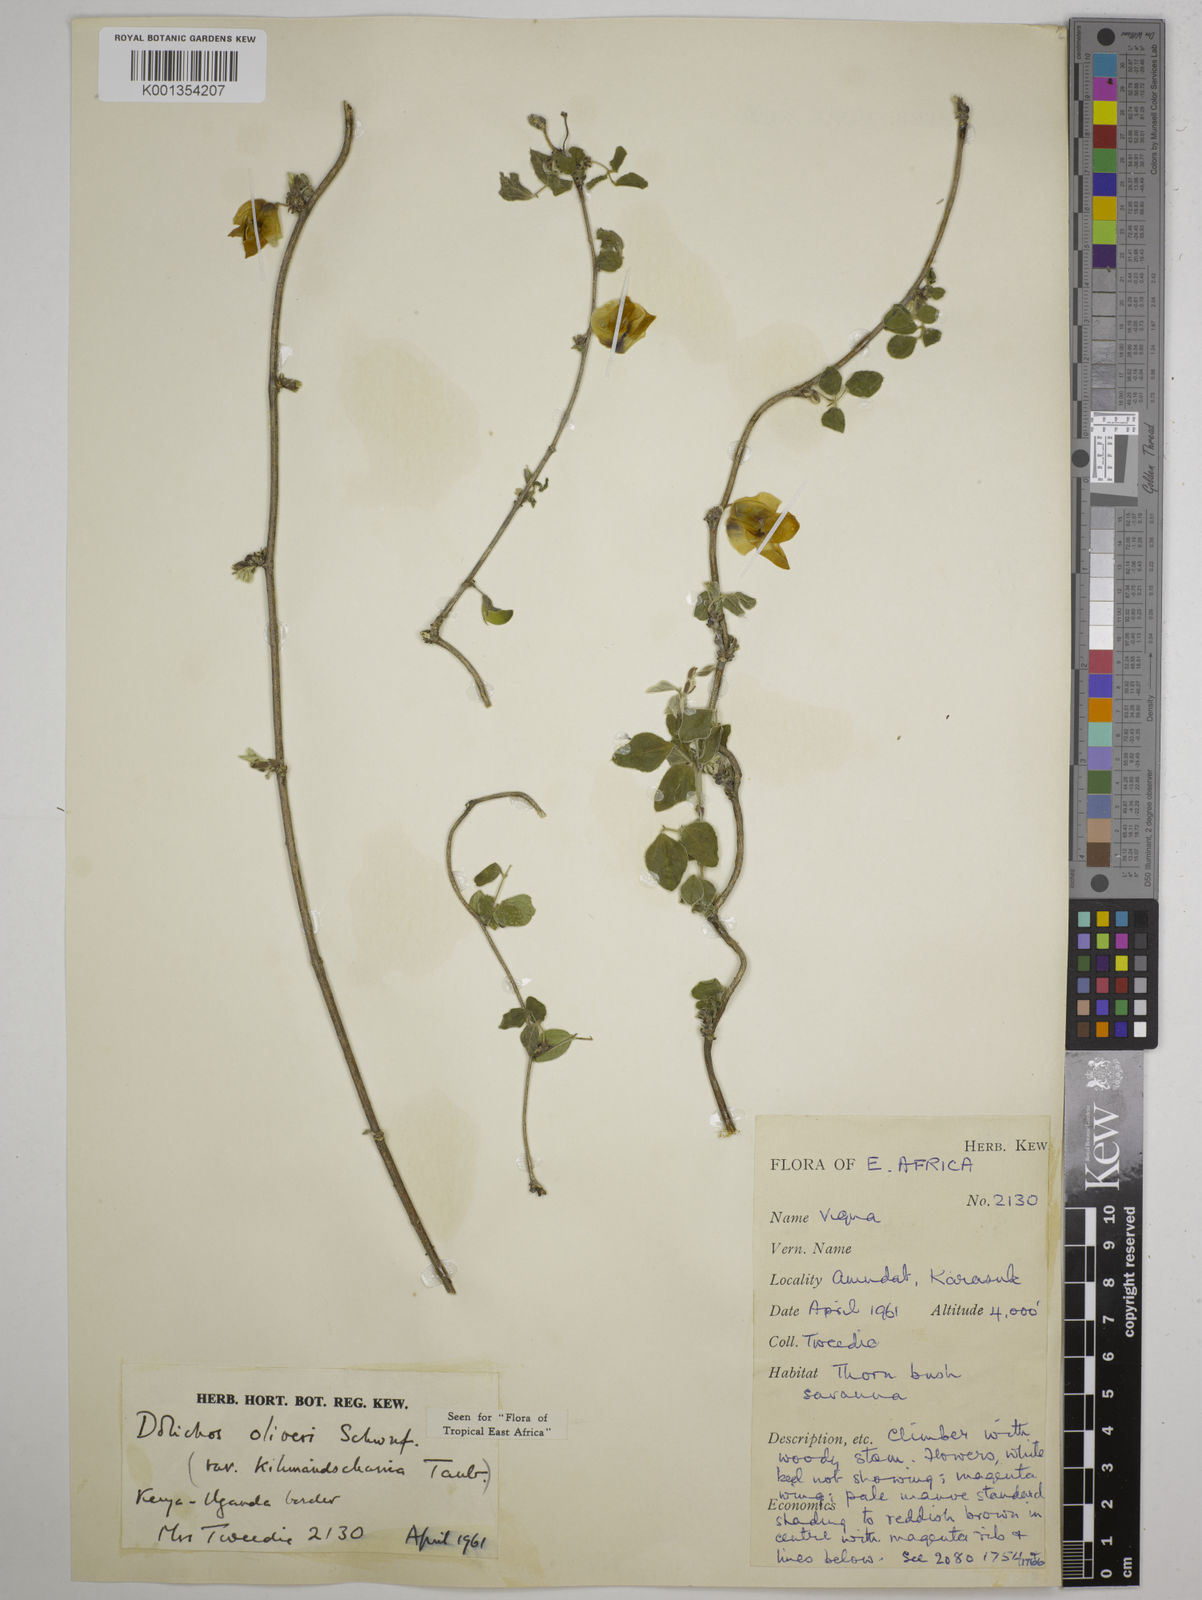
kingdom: Plantae
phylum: Tracheophyta
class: Magnoliopsida
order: Fabales
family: Fabaceae
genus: Dolichos
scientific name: Dolichos
